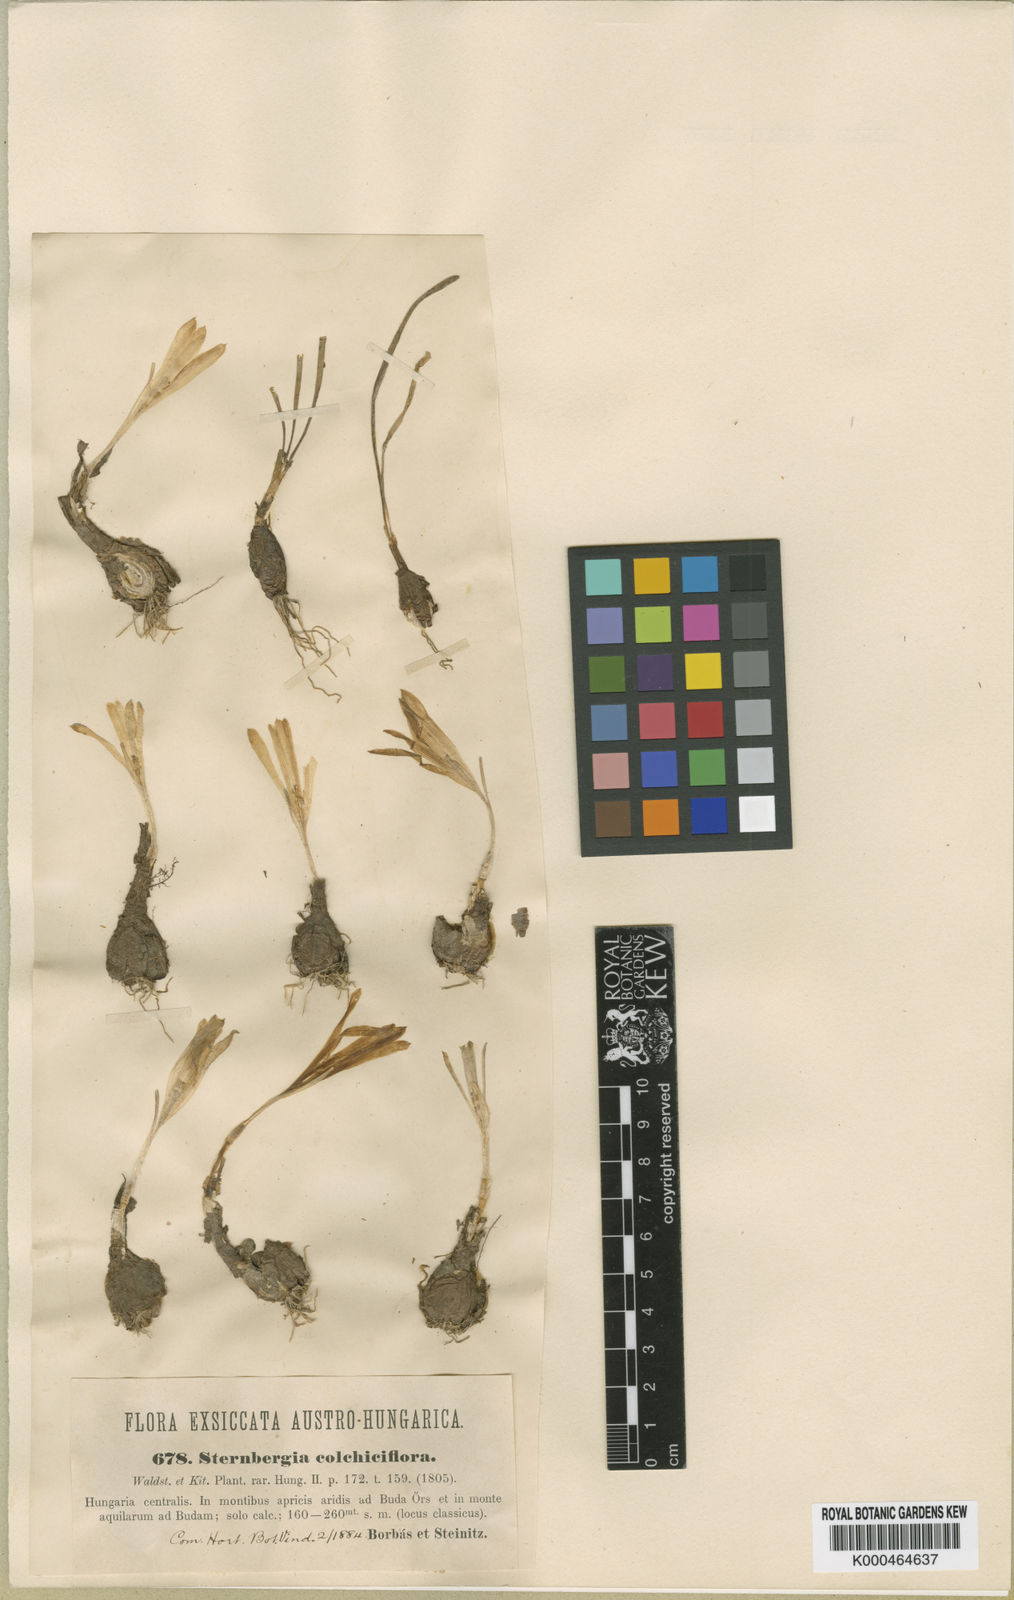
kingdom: Plantae
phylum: Tracheophyta
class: Liliopsida
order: Asparagales
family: Amaryllidaceae
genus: Sternbergia
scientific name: Sternbergia colchiciflora
